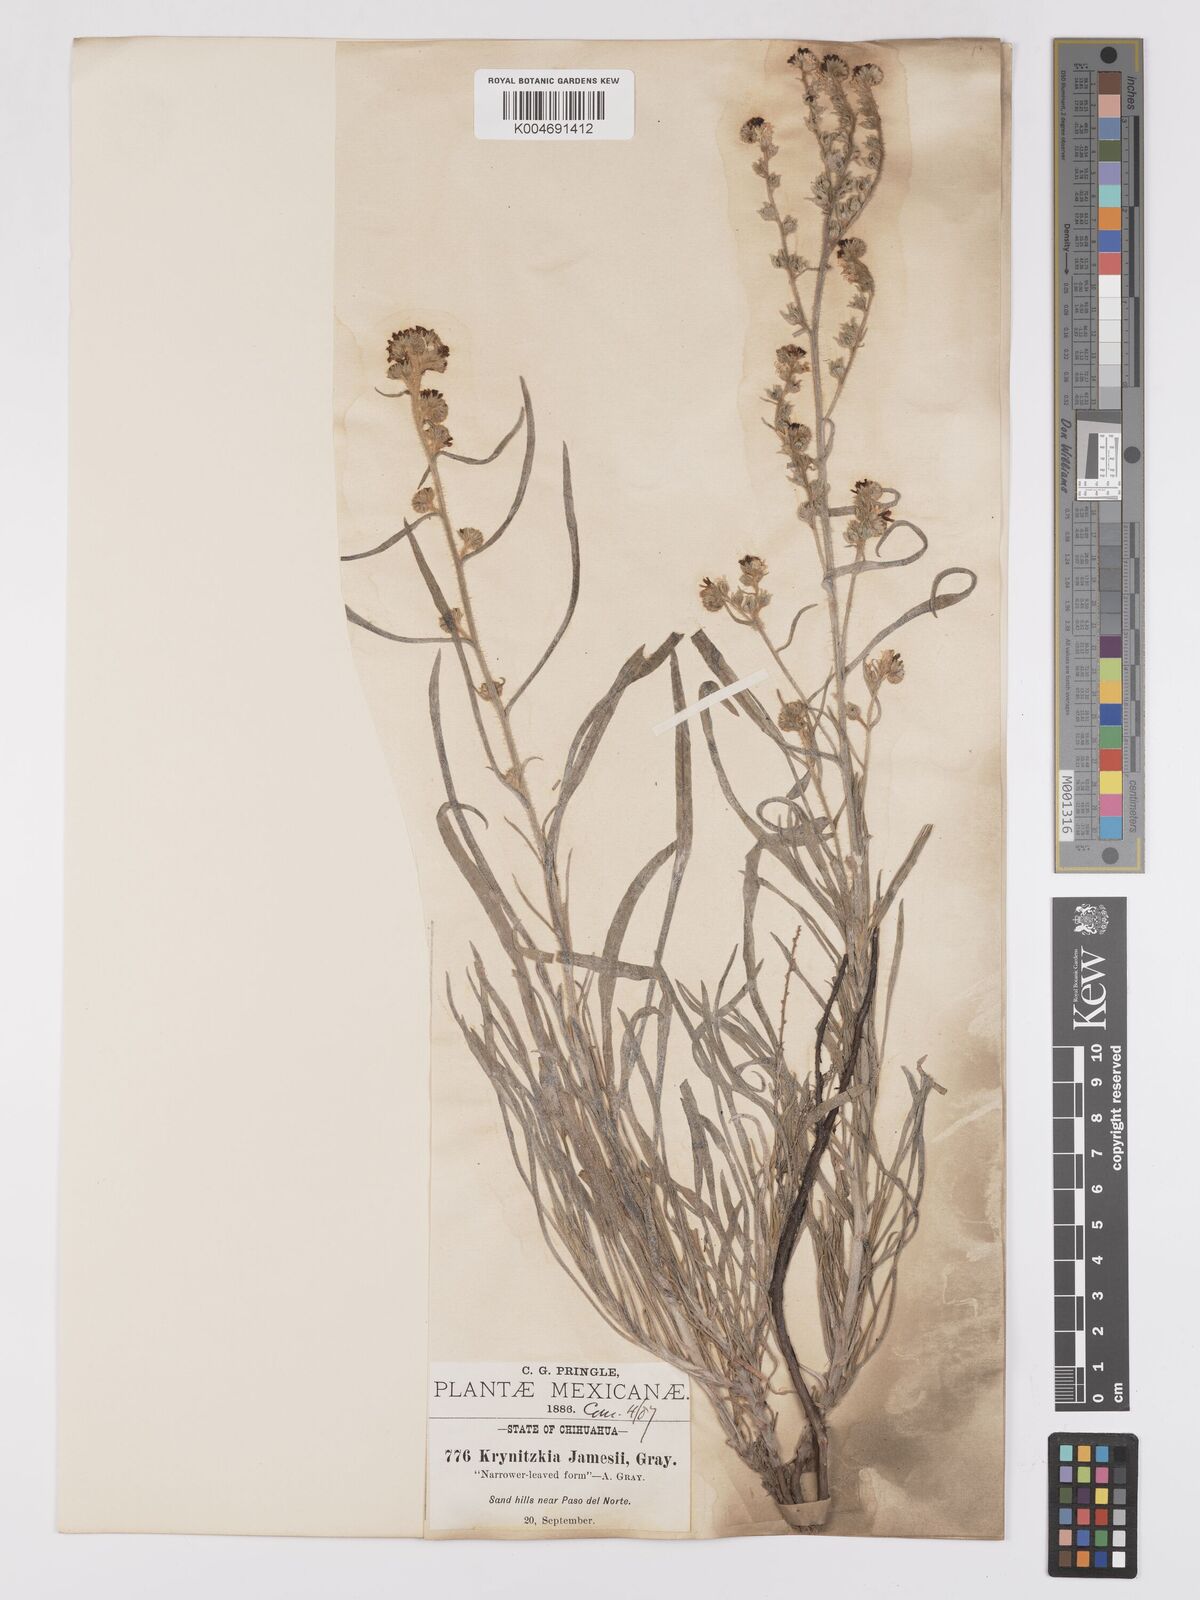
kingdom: Plantae
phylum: Tracheophyta
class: Magnoliopsida
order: Boraginales
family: Boraginaceae
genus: Oreocarya
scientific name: Oreocarya suffruticosa
